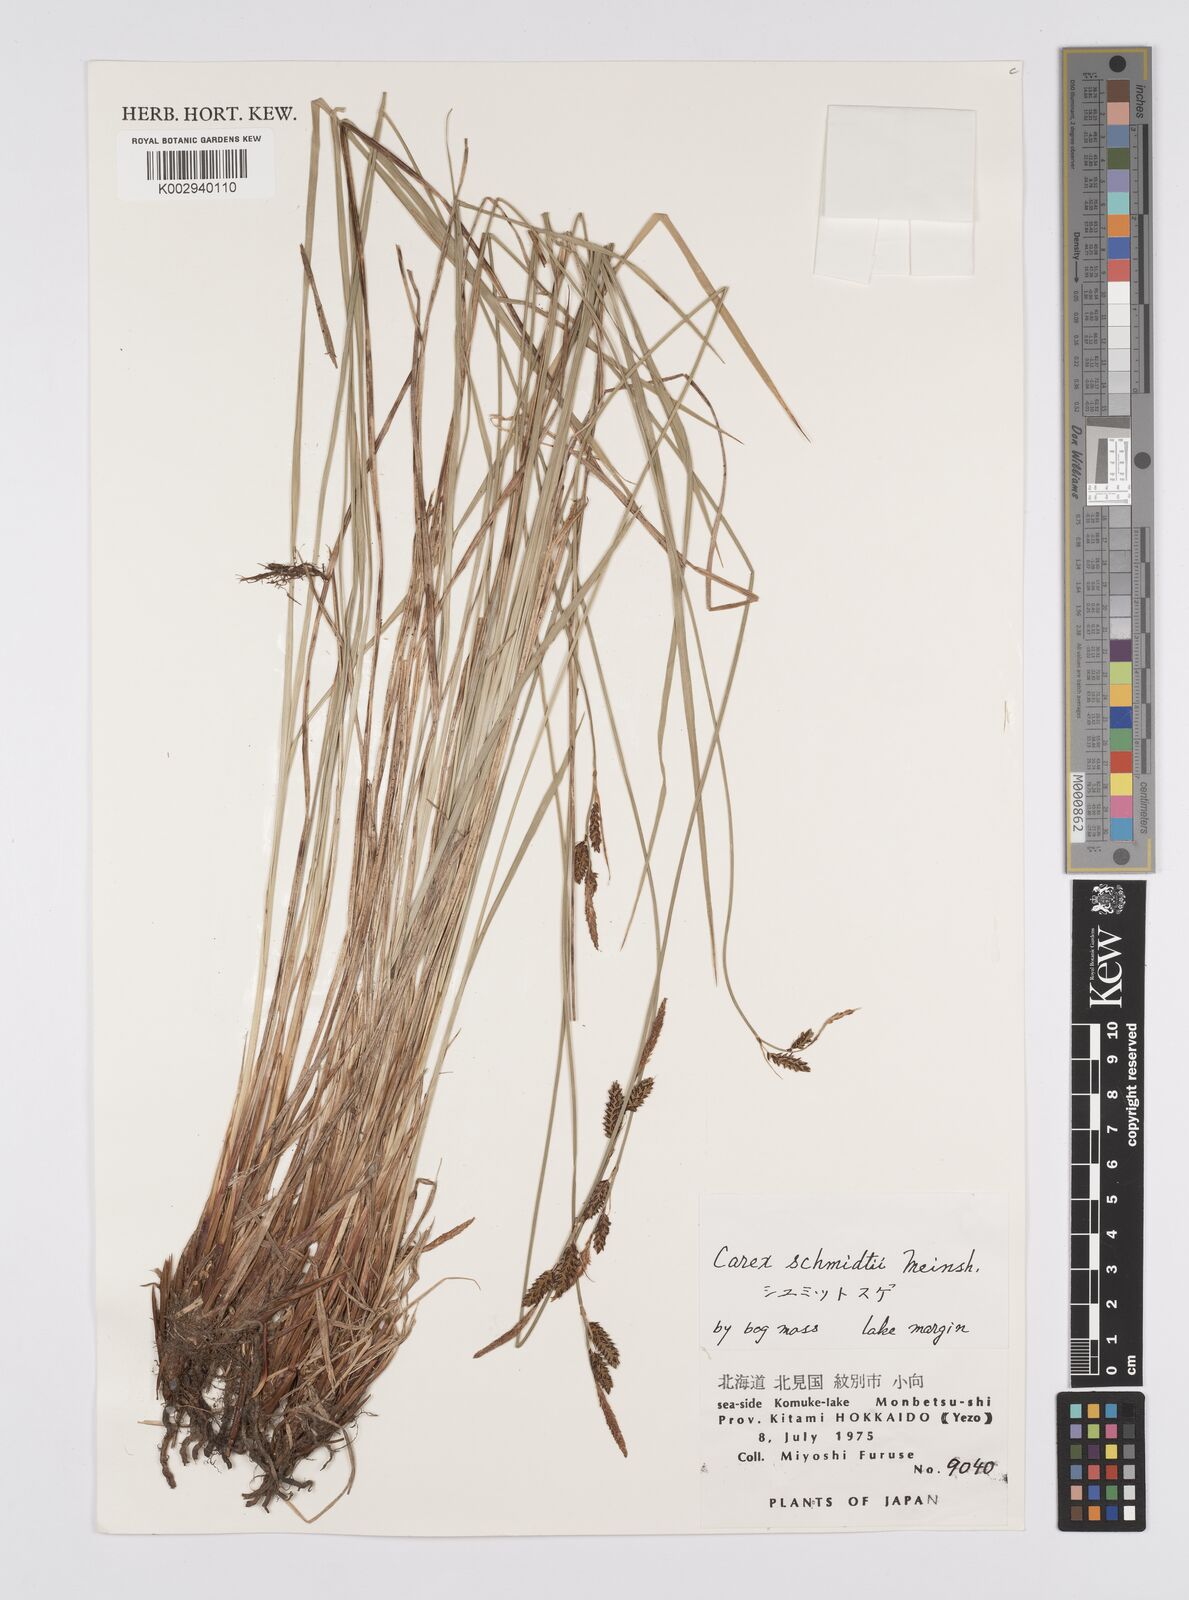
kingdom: Plantae
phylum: Tracheophyta
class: Liliopsida
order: Poales
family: Cyperaceae
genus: Carex
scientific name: Carex schmidtii
